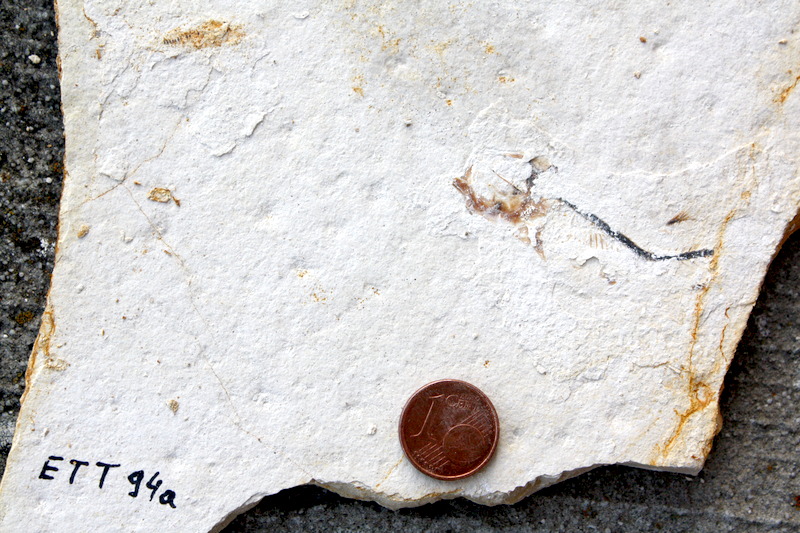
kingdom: Animalia
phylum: Chordata
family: Ascalaboidae
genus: Ebertichthys
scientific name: Ebertichthys ettlingensis
